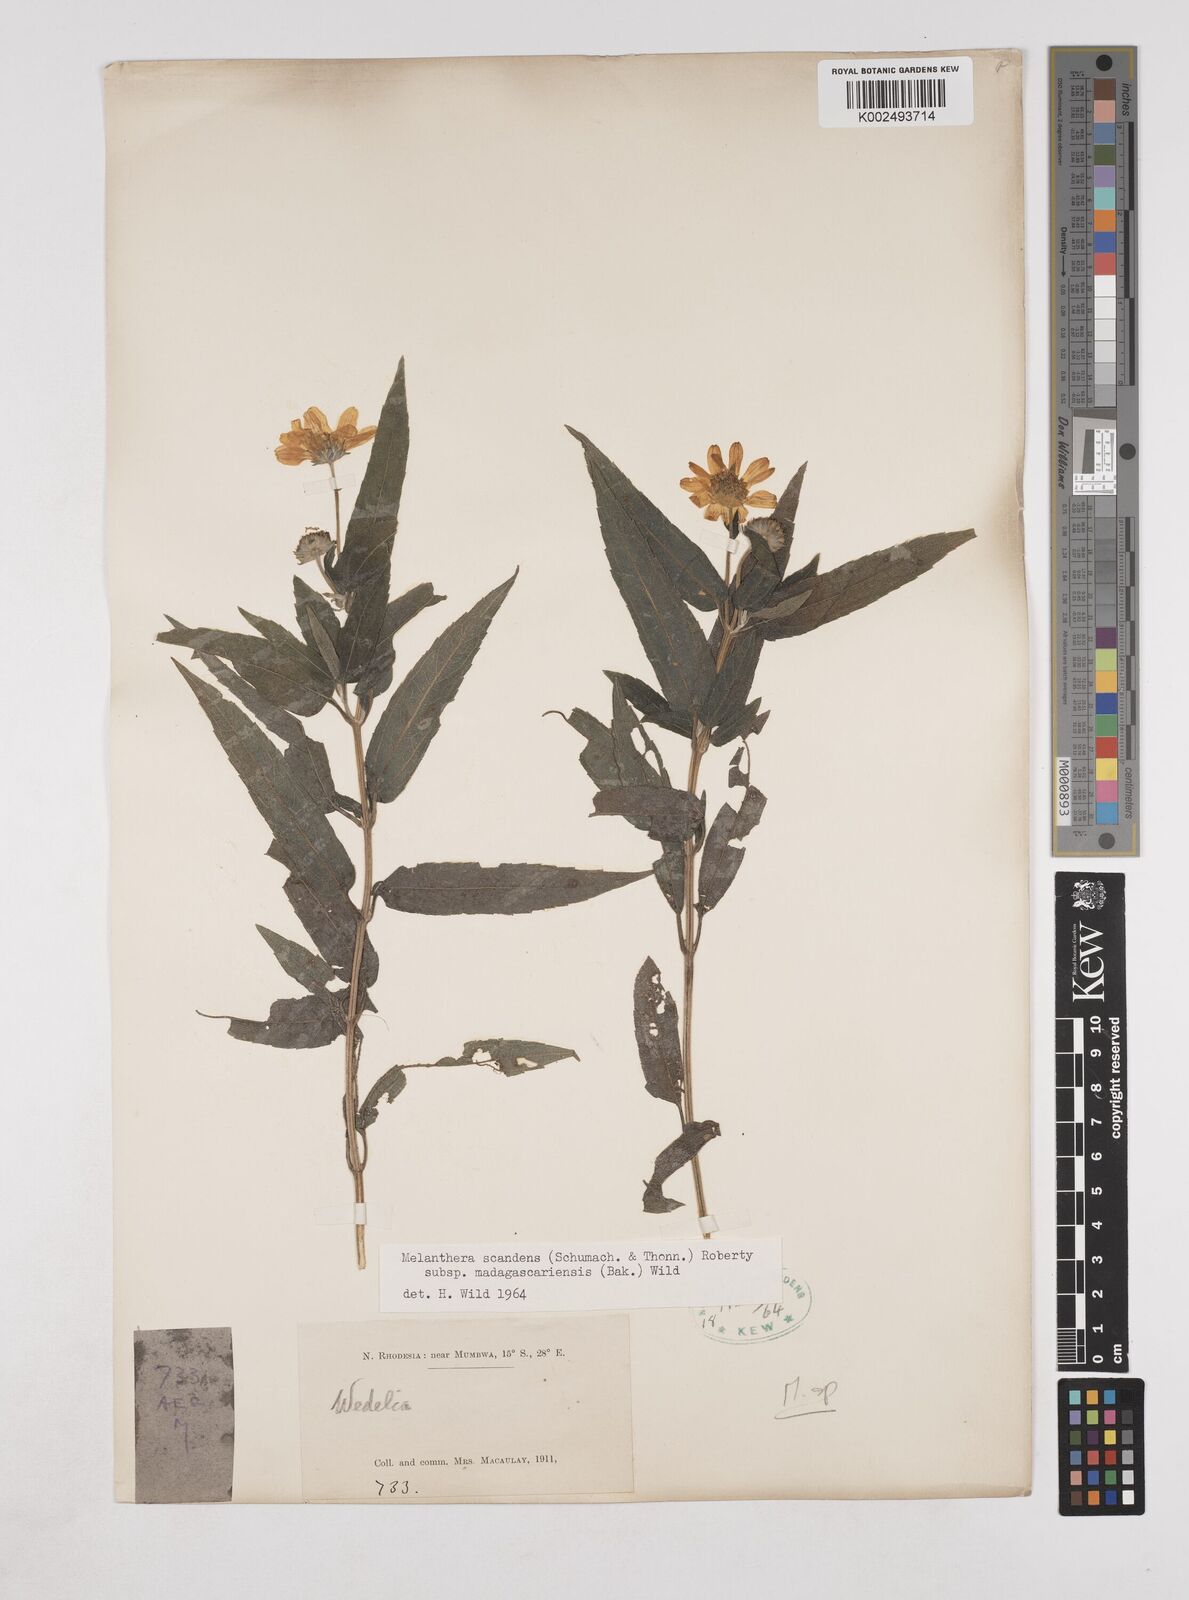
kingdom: Plantae
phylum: Tracheophyta
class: Magnoliopsida
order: Asterales
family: Asteraceae
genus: Lipotriche
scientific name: Lipotriche scandens
